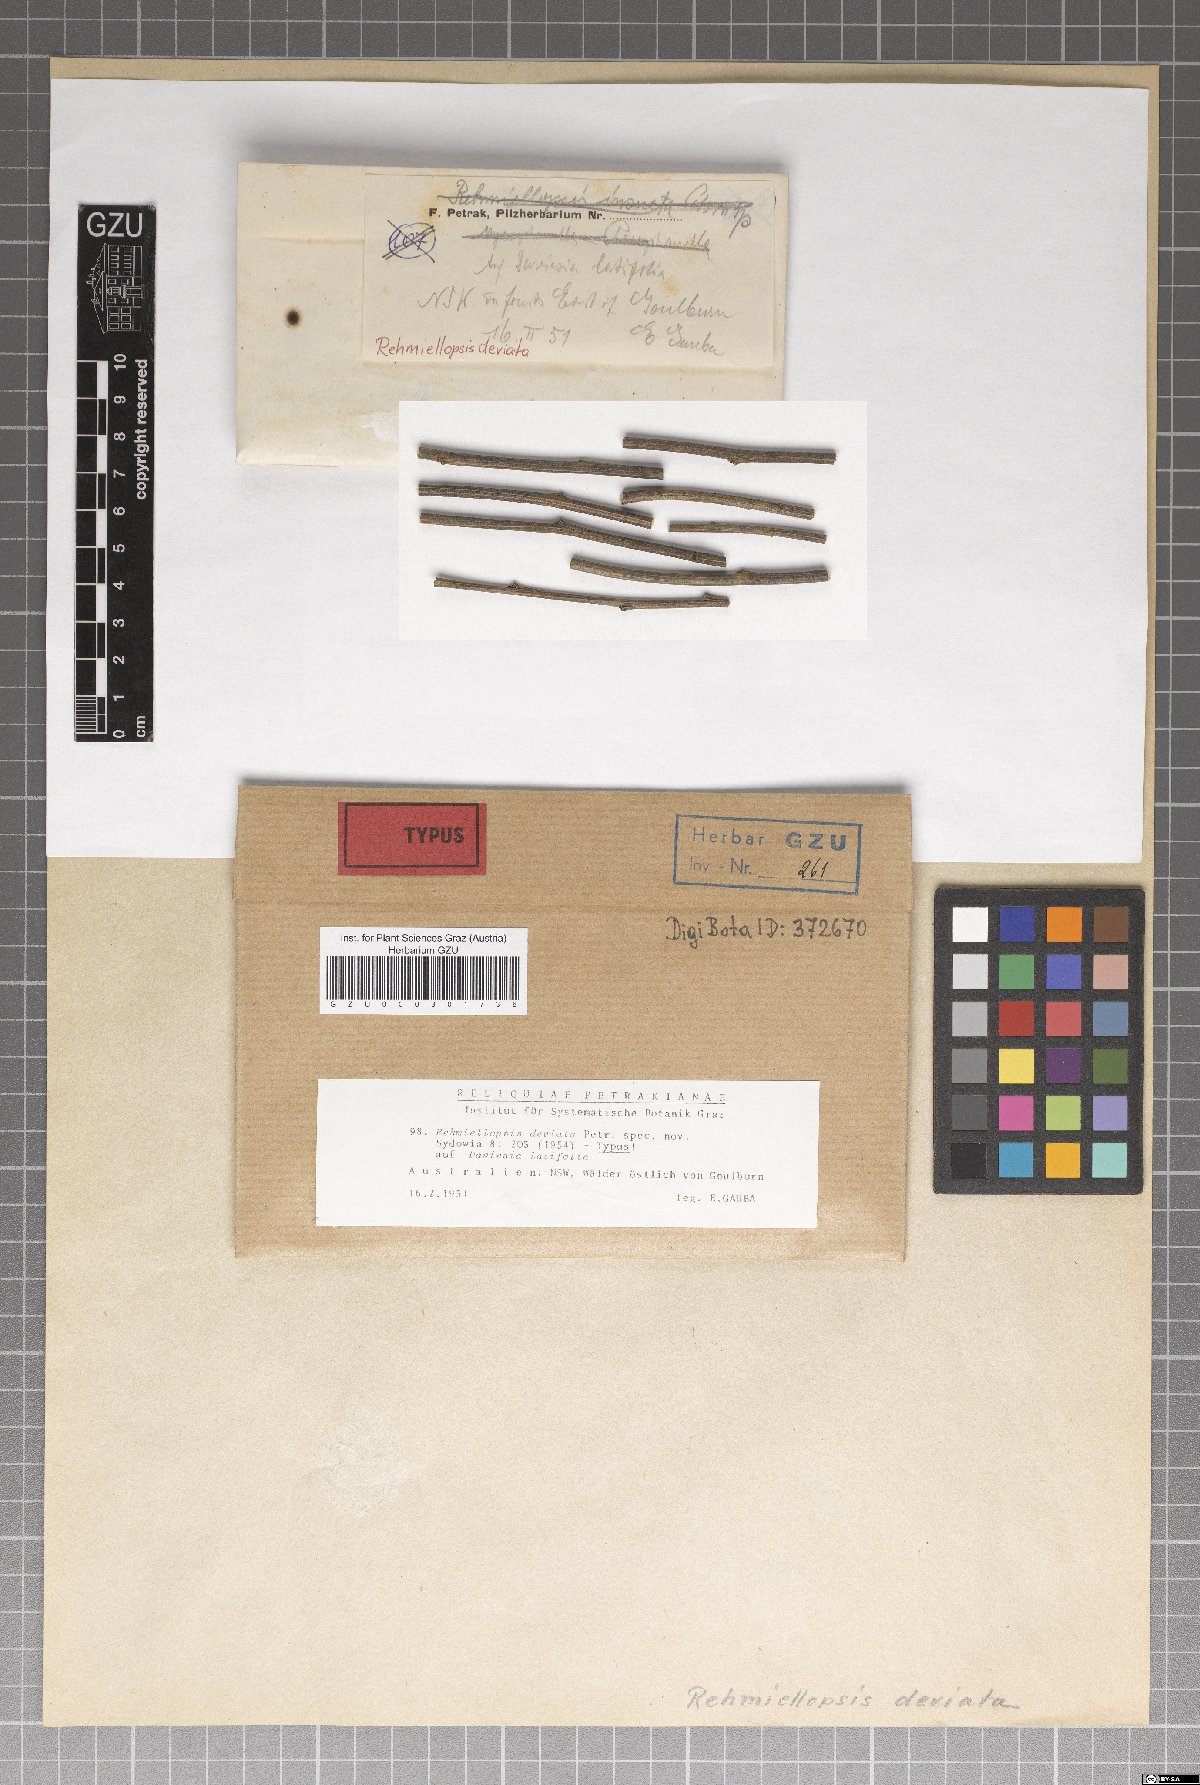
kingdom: Fungi
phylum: Ascomycota
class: Dothideomycetes
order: Dothideales
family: Dothioraceae
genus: Delphinella
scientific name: Delphinella deviata
